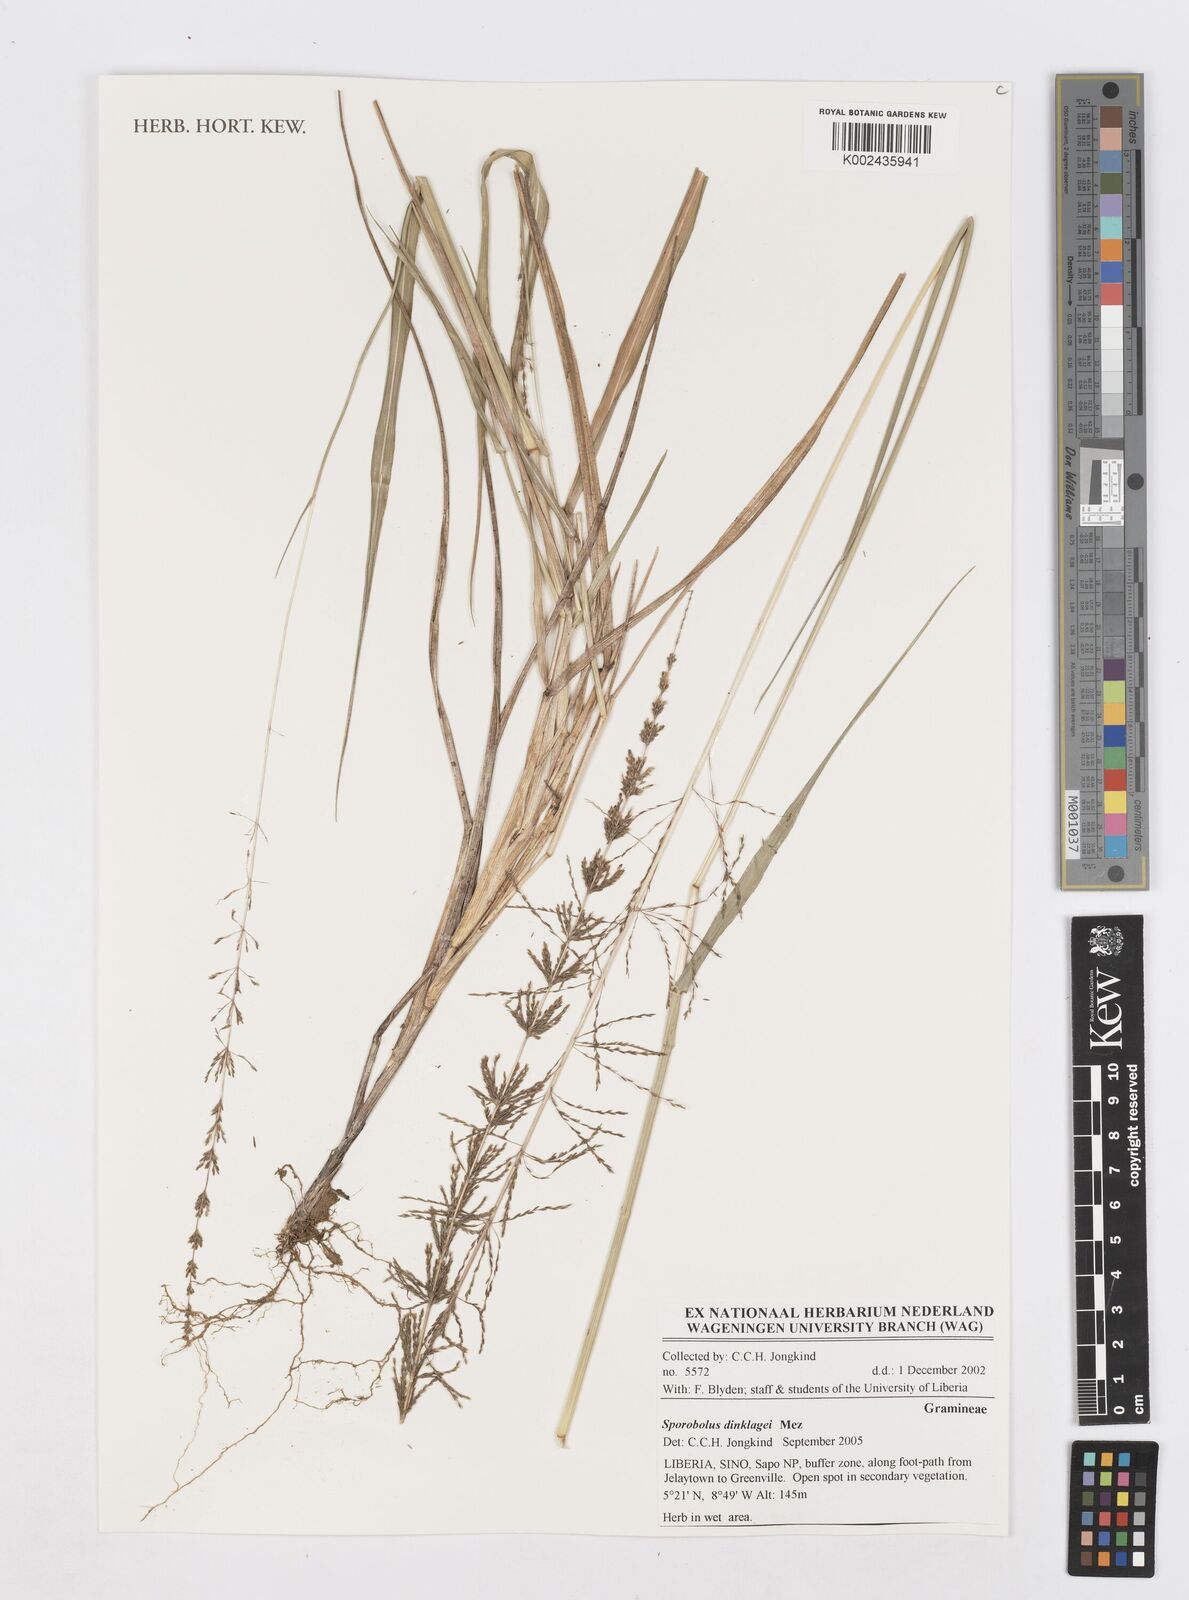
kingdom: Plantae
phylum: Tracheophyta
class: Liliopsida
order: Poales
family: Poaceae
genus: Sporobolus
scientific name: Sporobolus dinklagei
